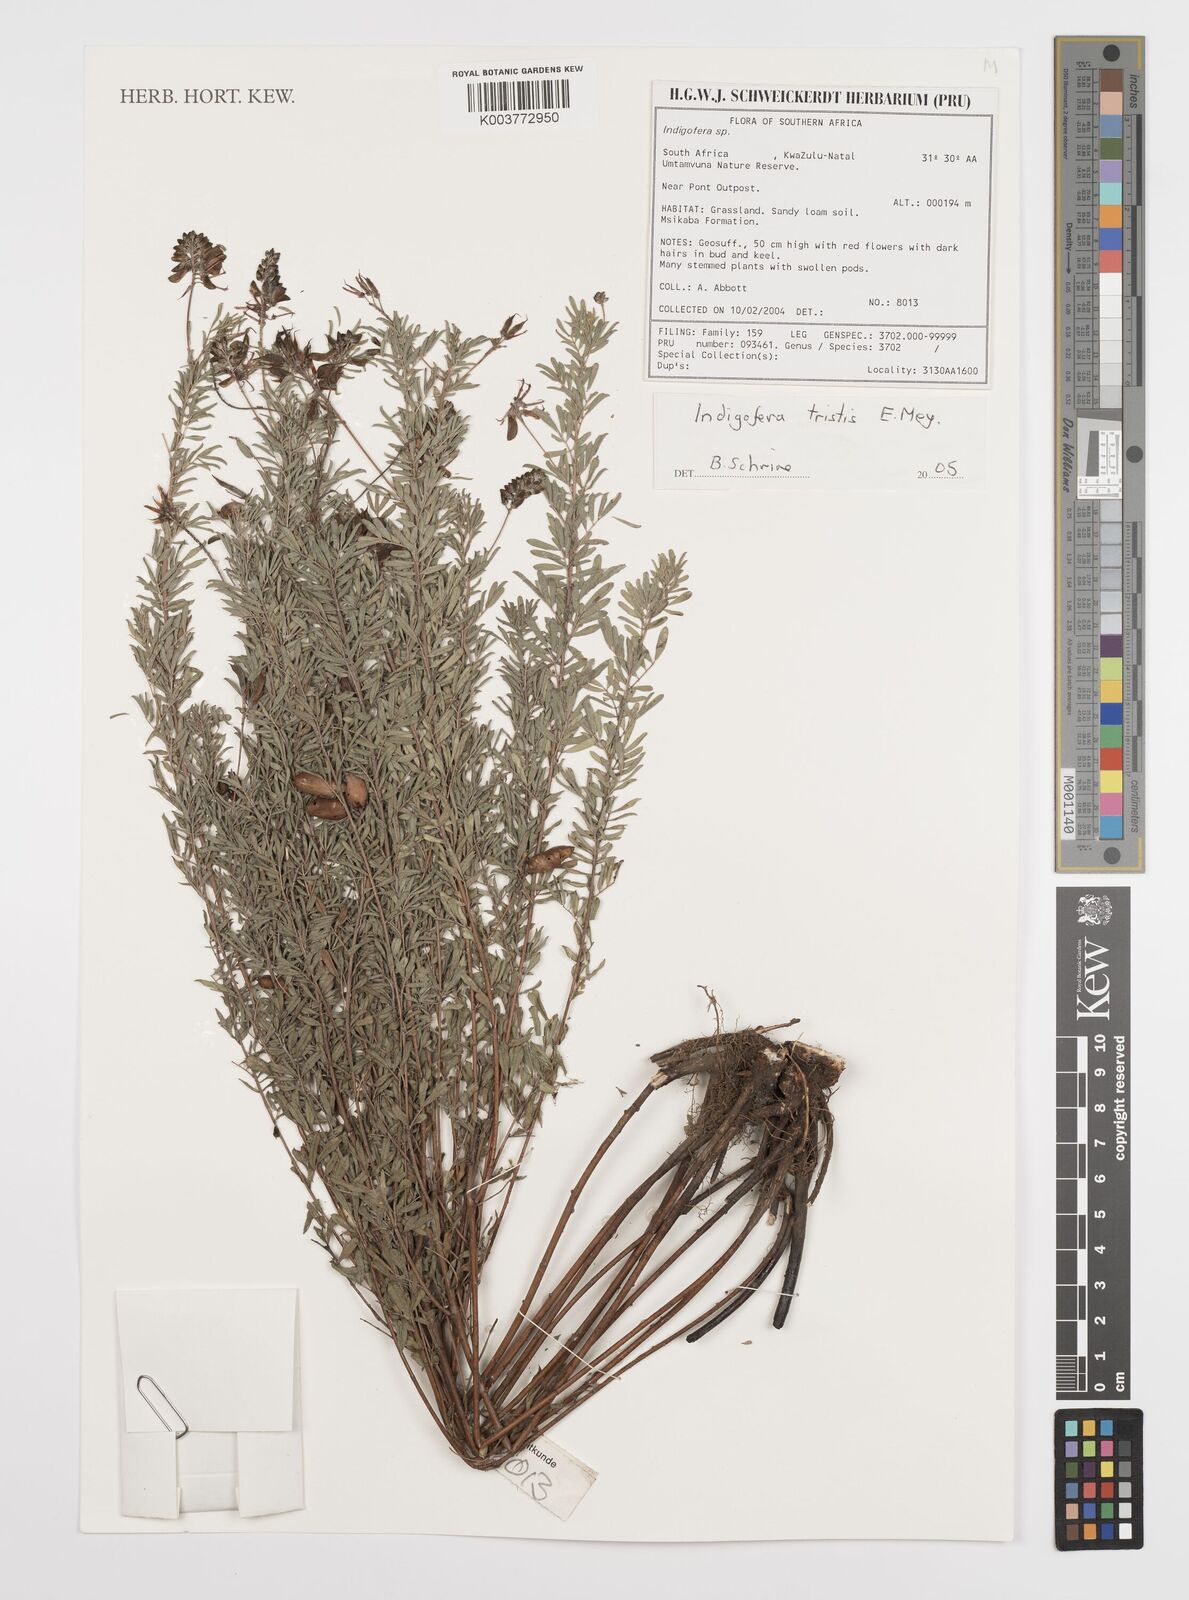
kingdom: Plantae
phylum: Tracheophyta
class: Magnoliopsida
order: Fabales
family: Fabaceae
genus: Indigofera
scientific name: Indigofera
